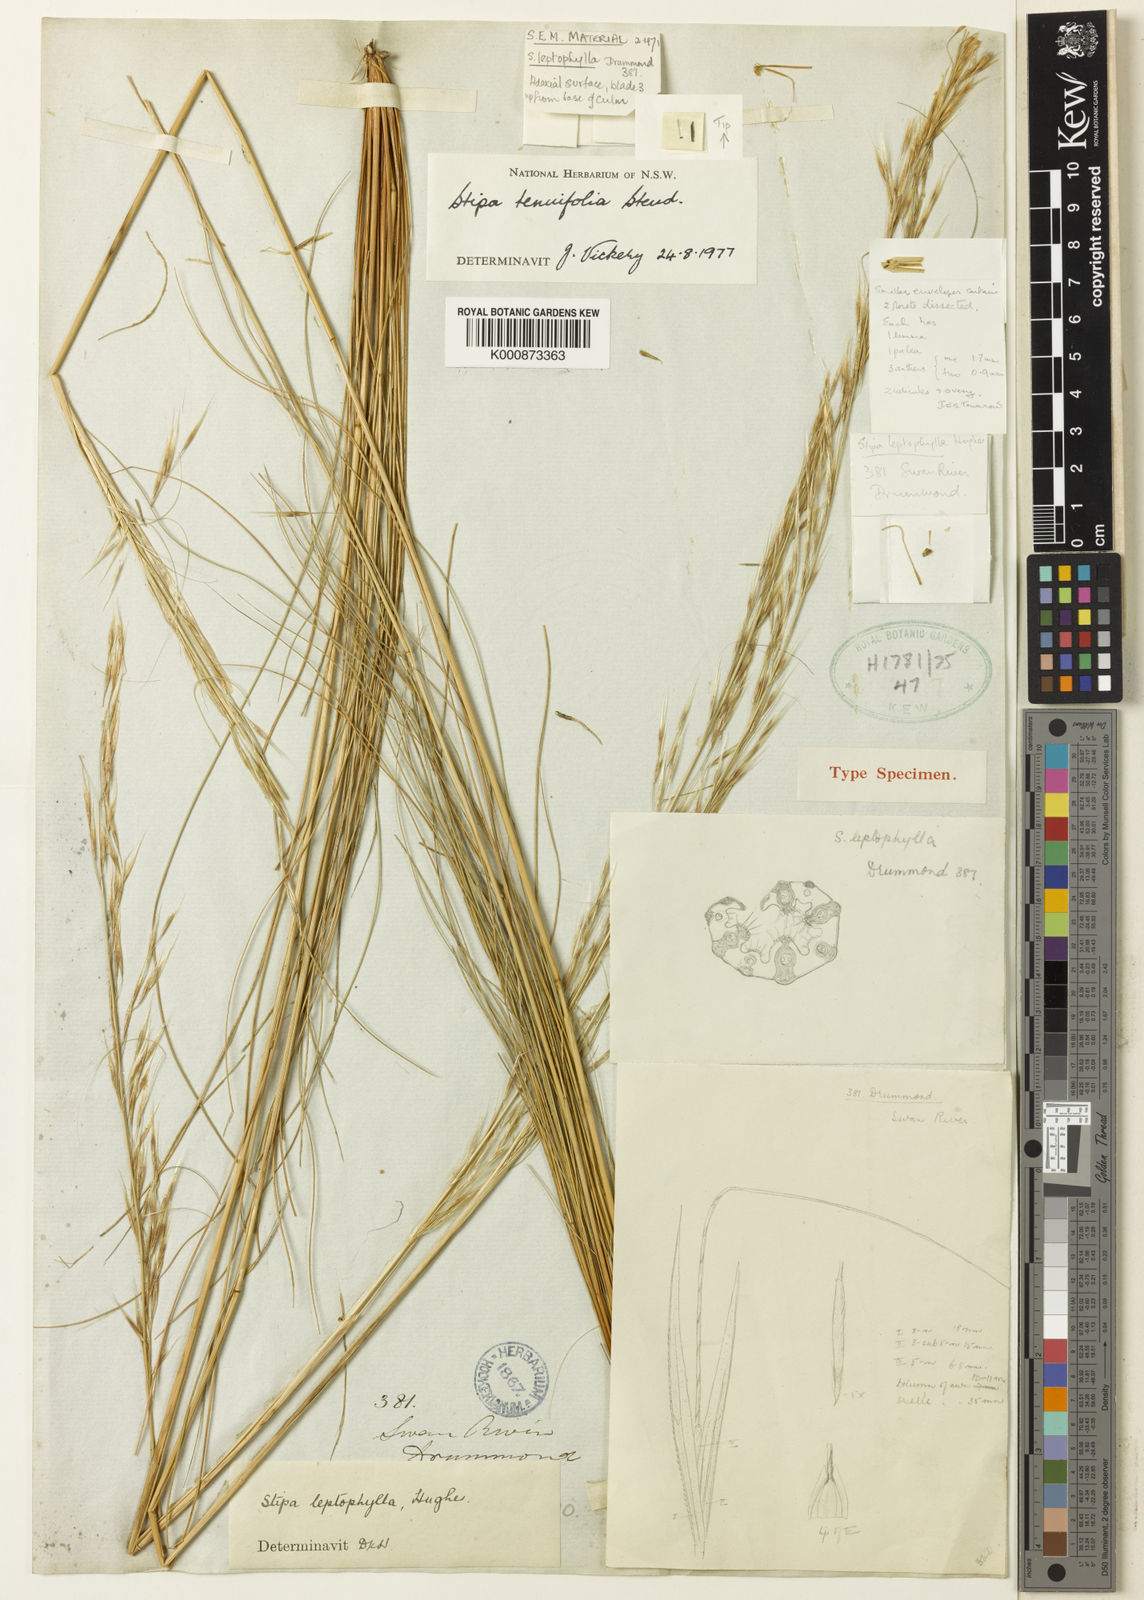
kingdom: Plantae
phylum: Tracheophyta
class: Liliopsida
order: Poales
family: Poaceae
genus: Austrostipa
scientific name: Austrostipa scabra
